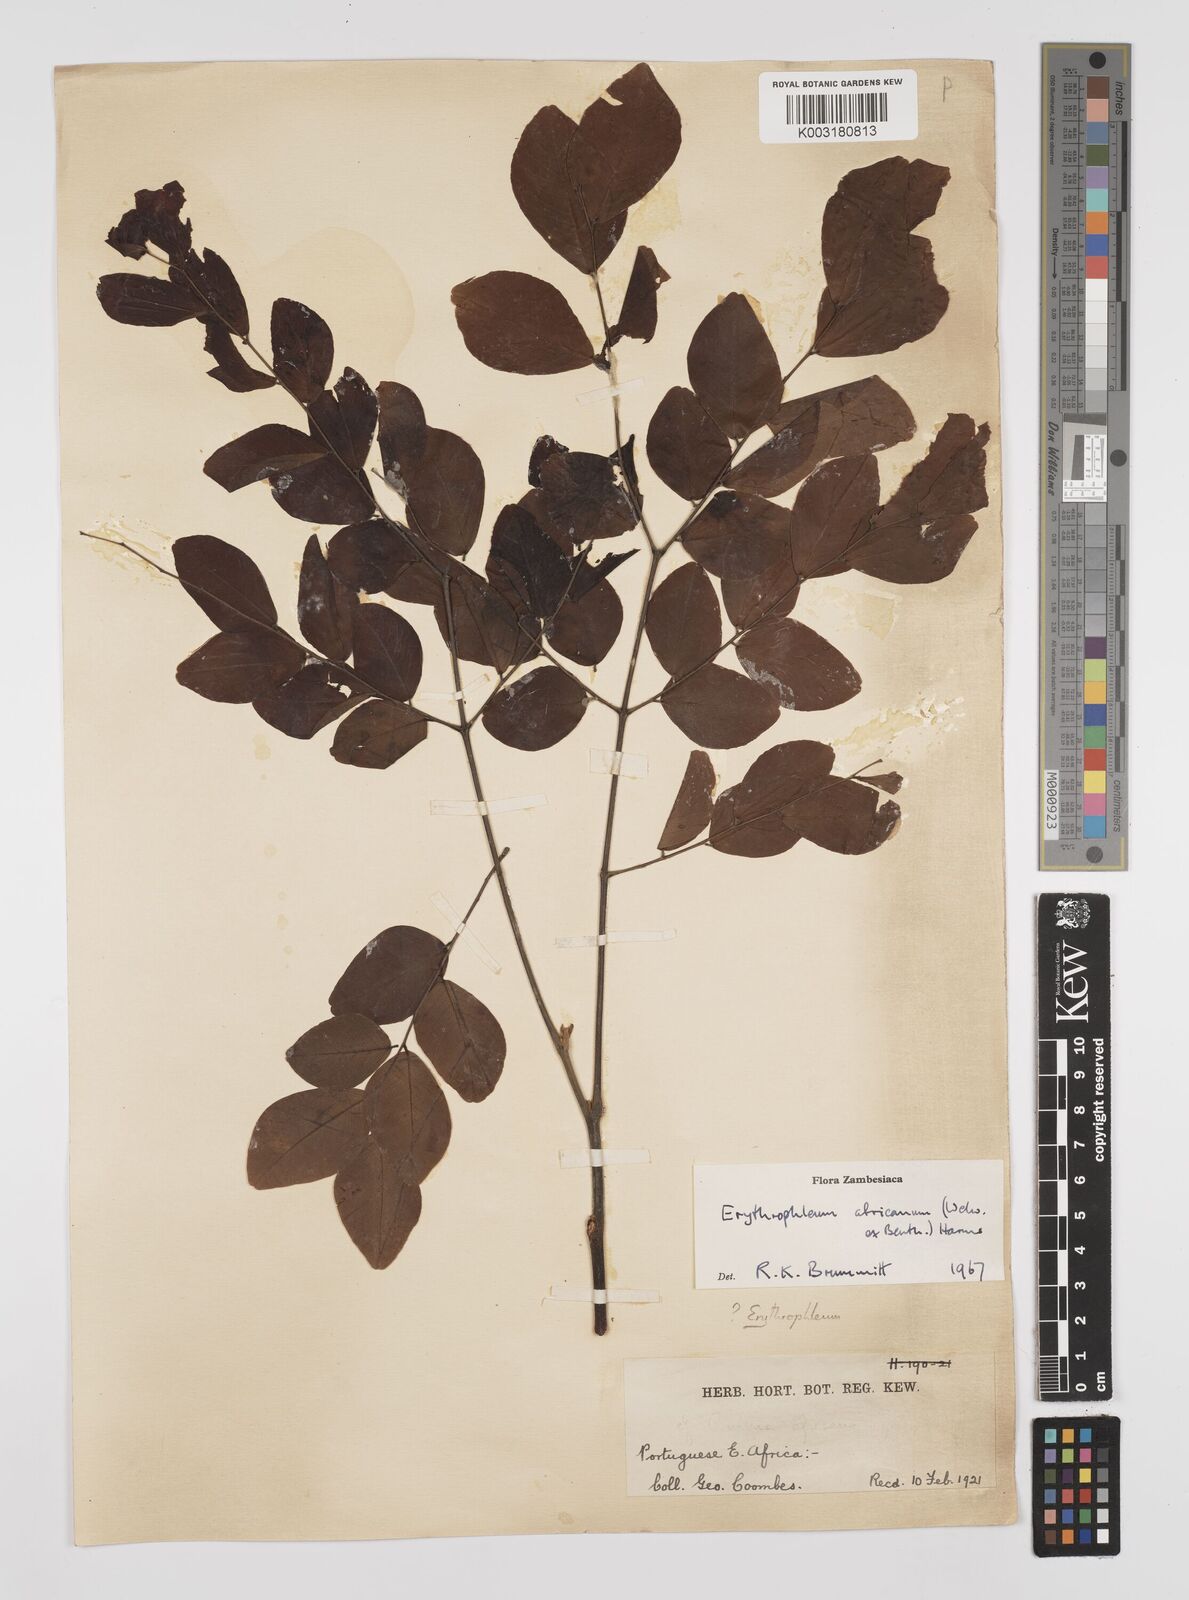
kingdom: Plantae
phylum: Tracheophyta
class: Magnoliopsida
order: Fabales
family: Fabaceae
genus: Peltophorum
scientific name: Peltophorum africanum
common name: African black wattle
